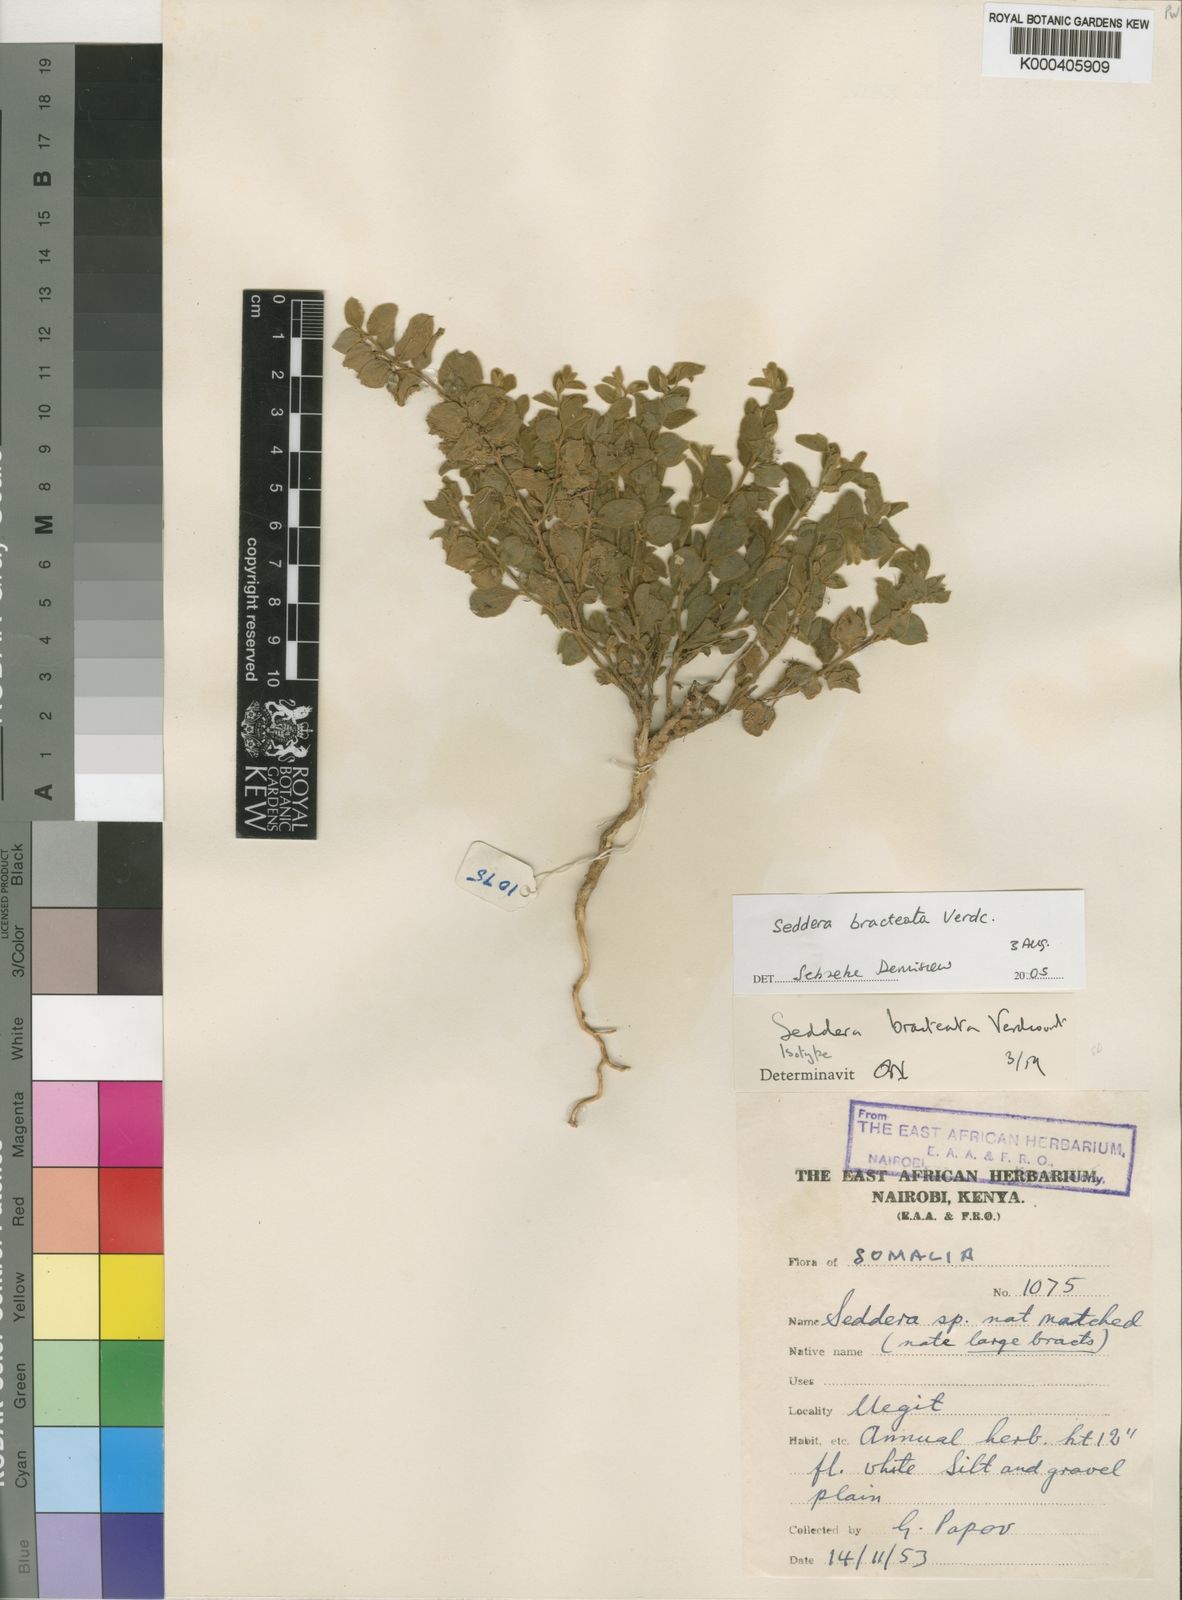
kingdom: Plantae
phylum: Tracheophyta
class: Magnoliopsida
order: Solanales
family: Convolvulaceae
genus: Seddera
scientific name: Seddera bracteata
